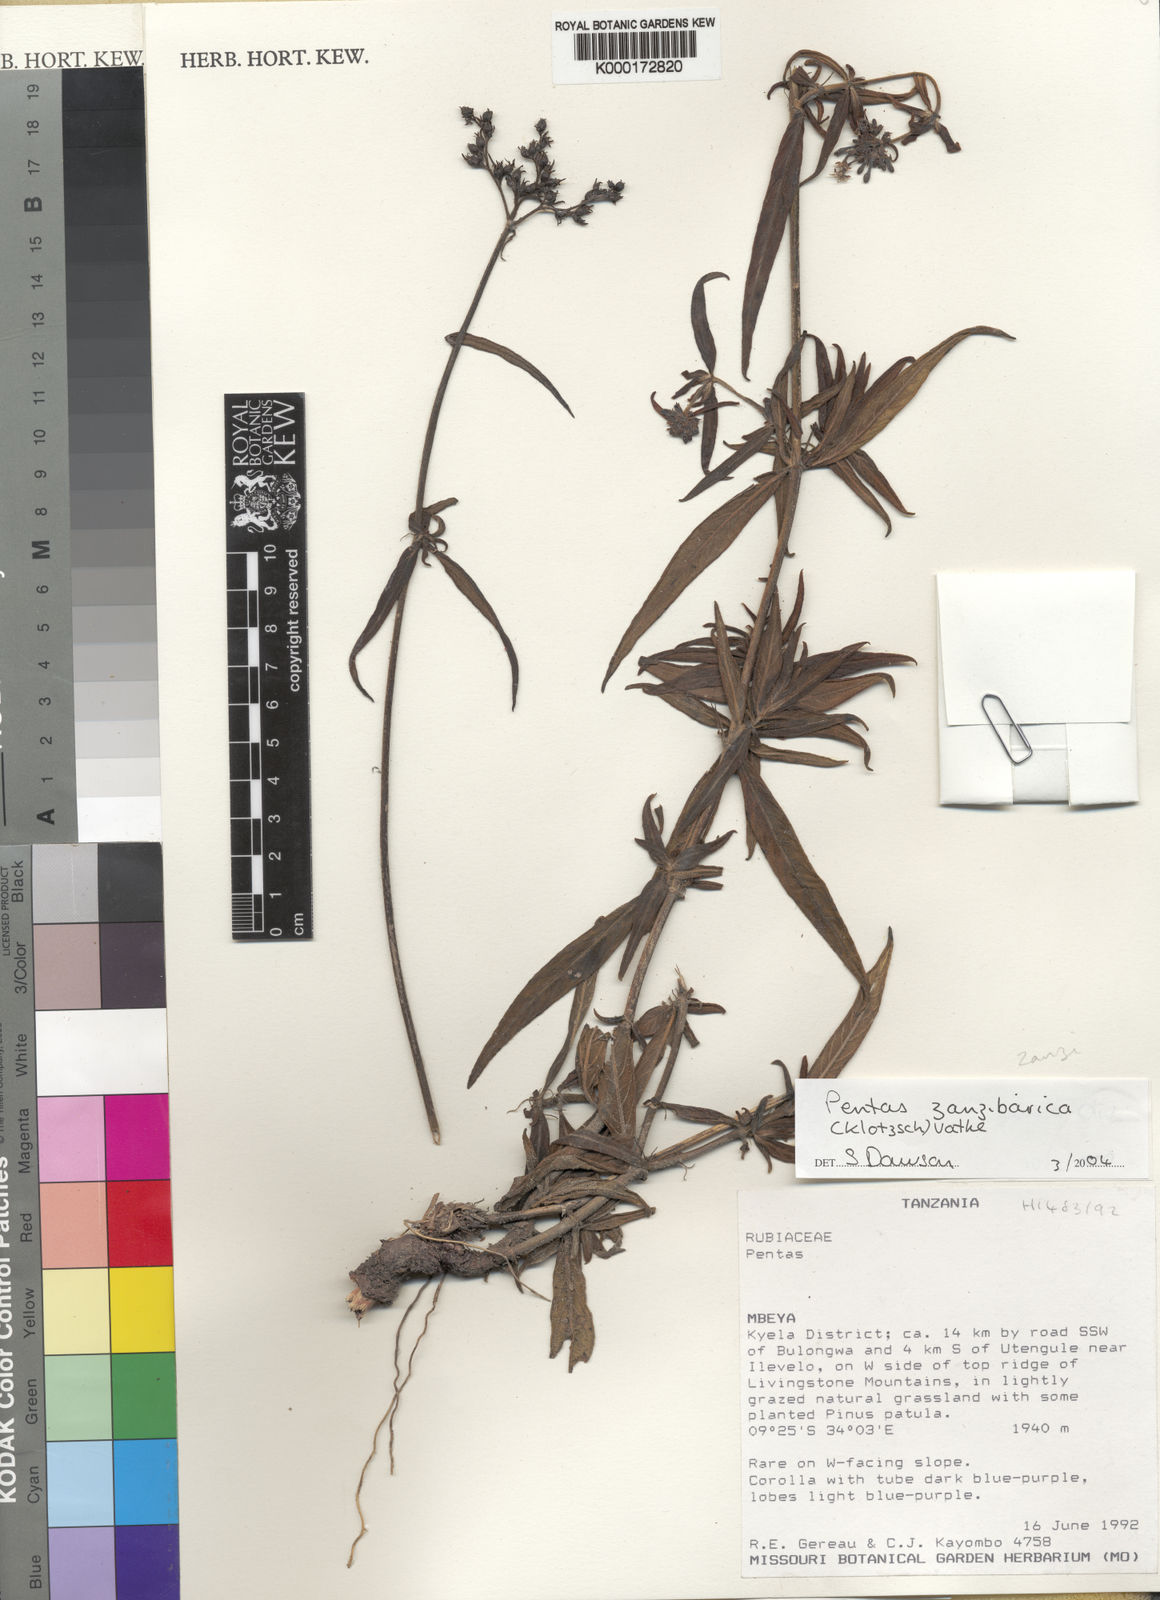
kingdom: Plantae
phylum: Tracheophyta
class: Magnoliopsida
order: Gentianales
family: Rubiaceae
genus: Pentas
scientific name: Pentas zanzibarica
